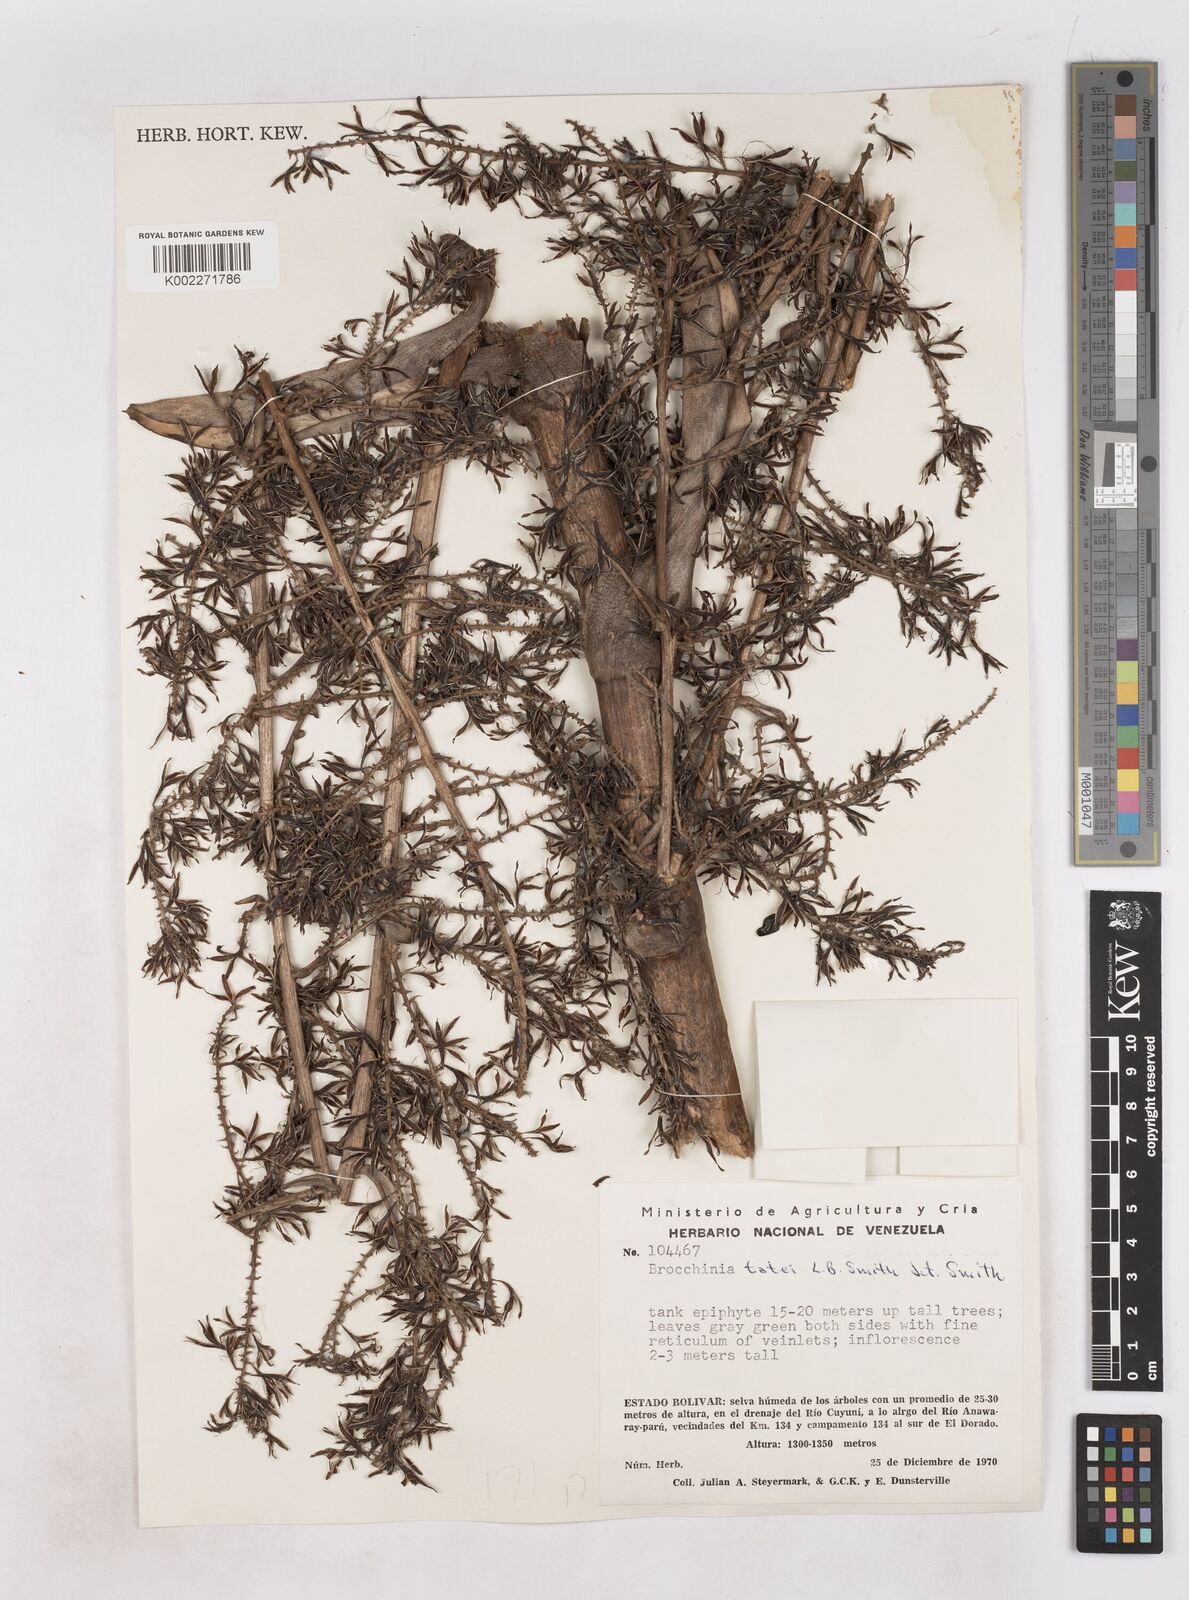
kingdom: Plantae
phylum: Tracheophyta
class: Liliopsida
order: Poales
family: Bromeliaceae
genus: Brocchinia
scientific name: Brocchinia tatei
